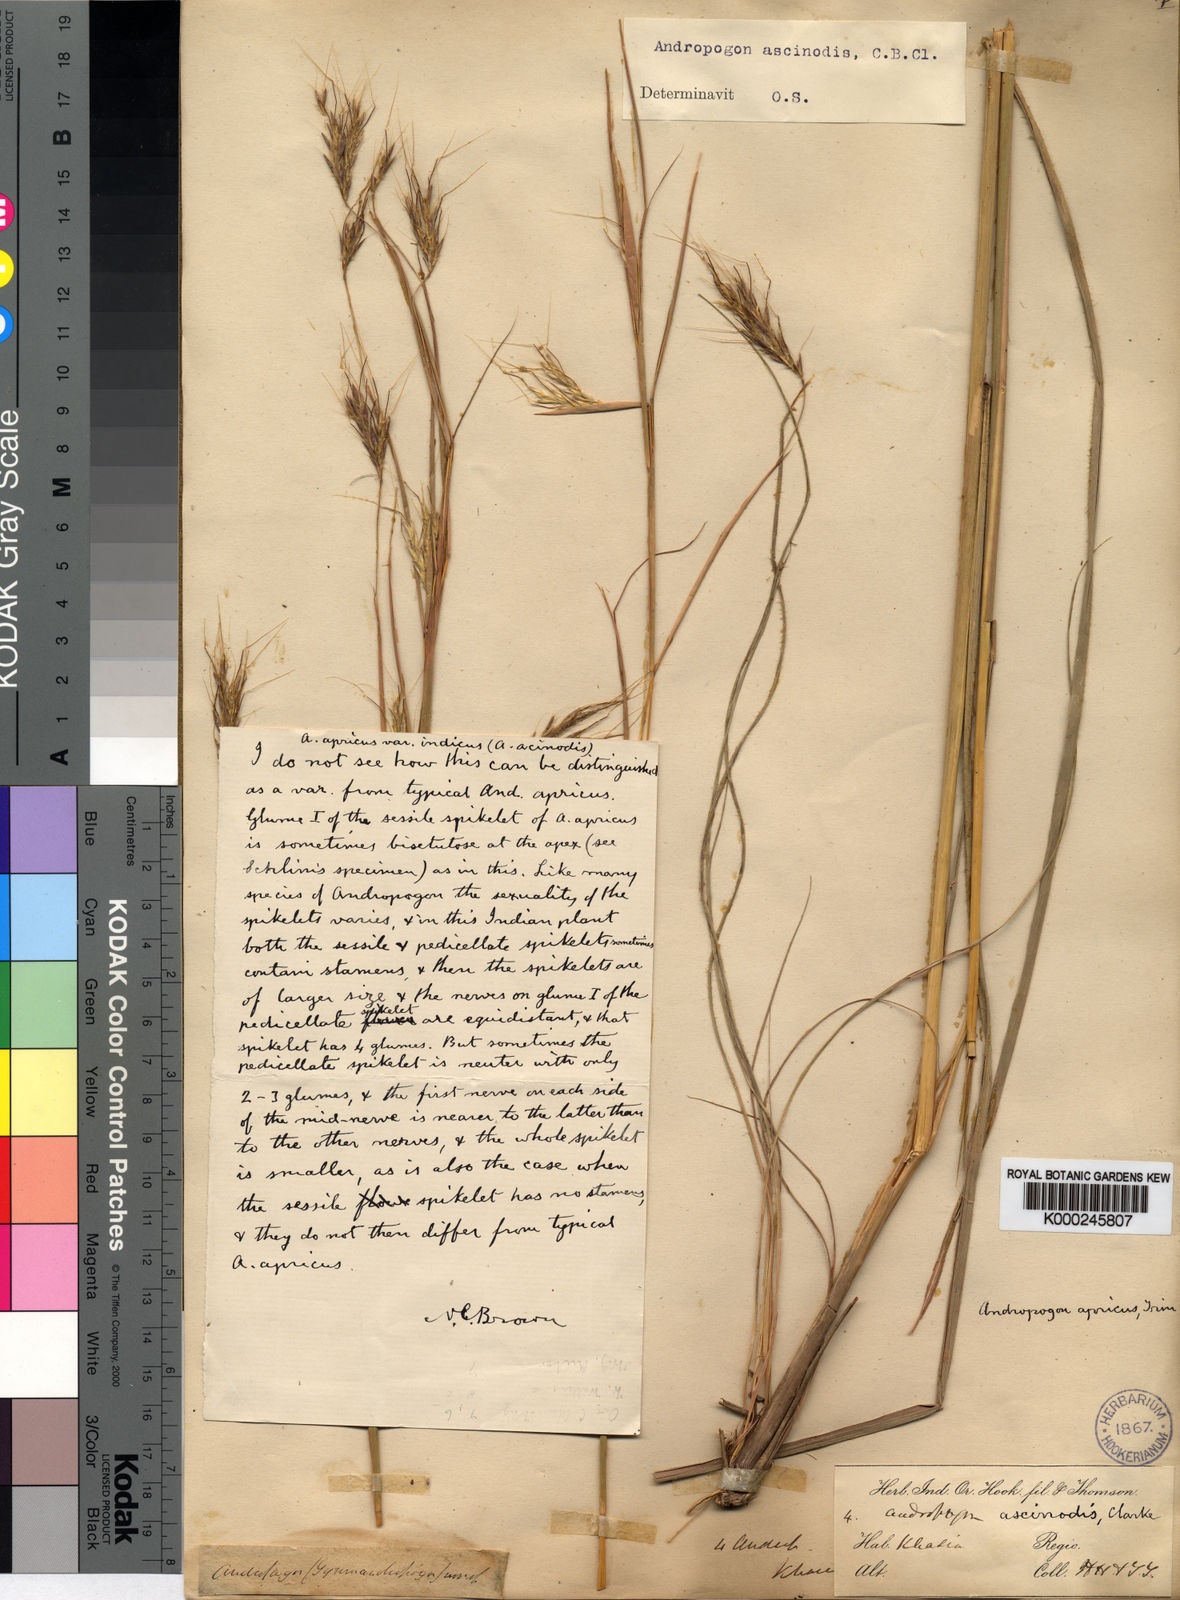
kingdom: Plantae
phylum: Tracheophyta
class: Liliopsida
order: Poales
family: Poaceae
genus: Andropogon
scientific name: Andropogon chinensis
